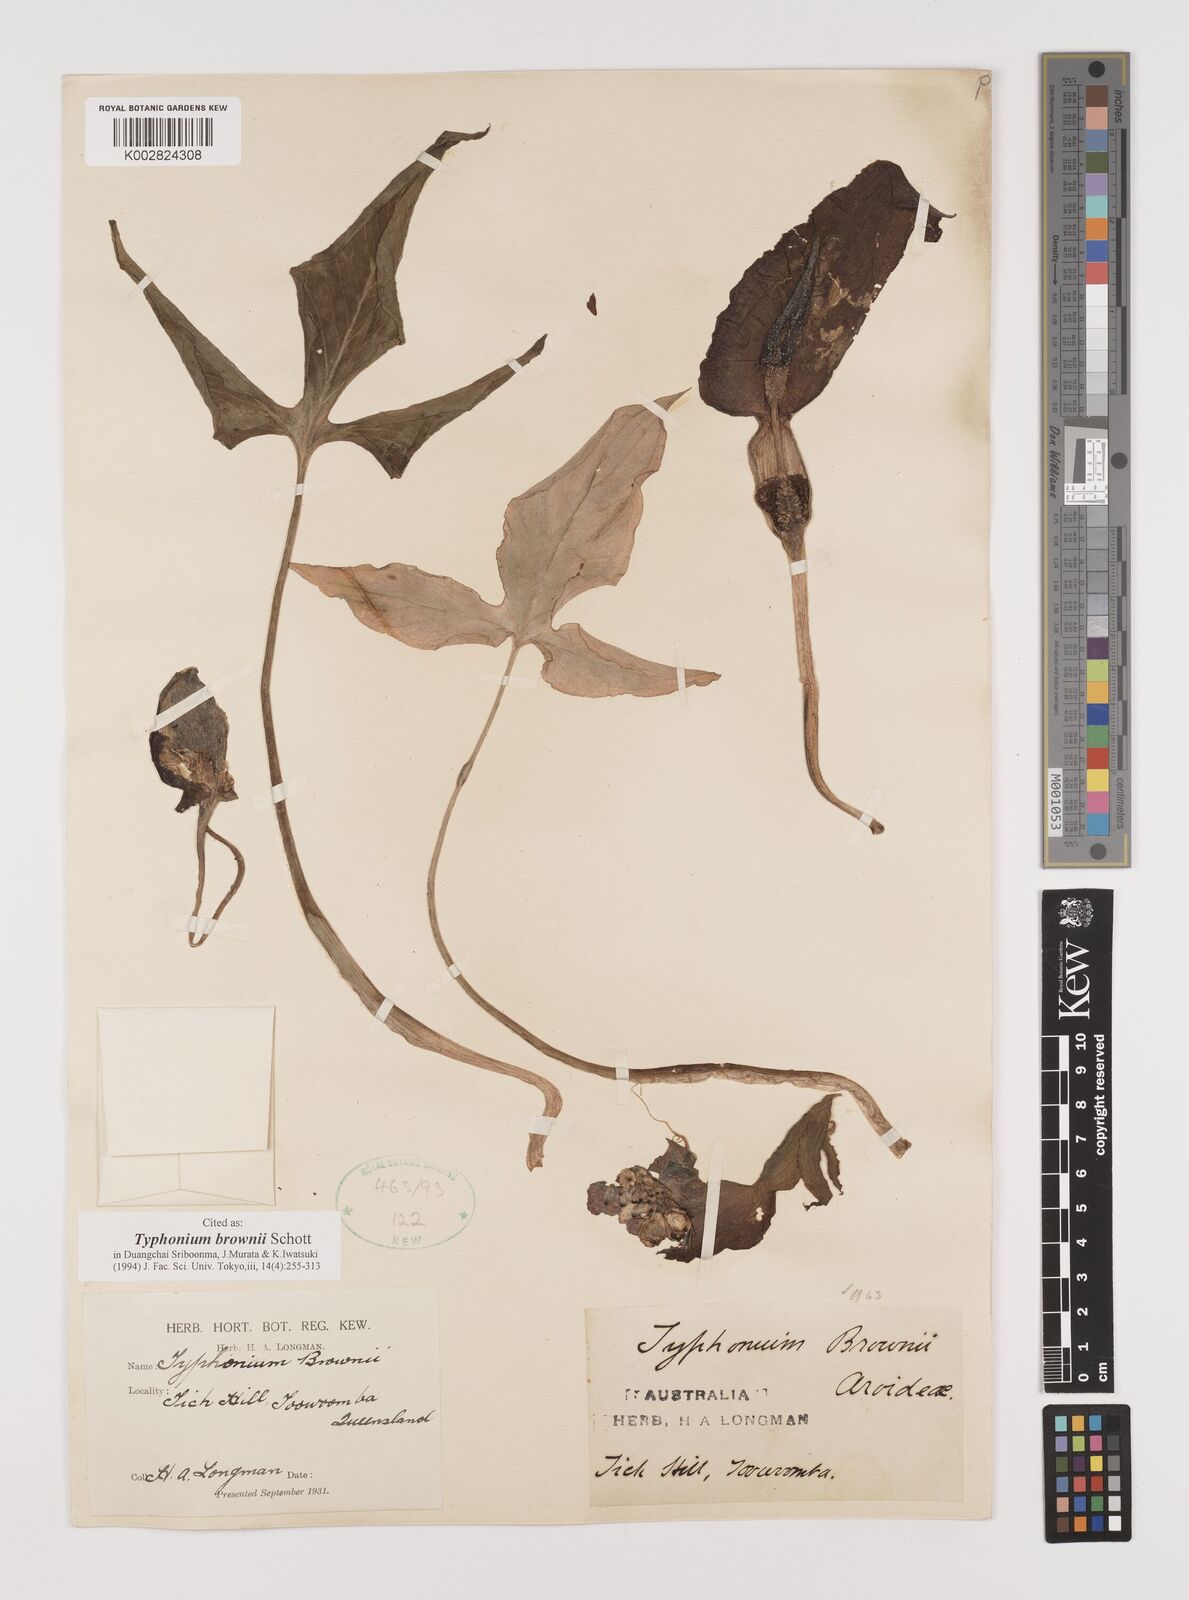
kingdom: Plantae
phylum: Tracheophyta
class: Liliopsida
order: Alismatales
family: Araceae
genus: Typhonium
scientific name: Typhonium brownii
